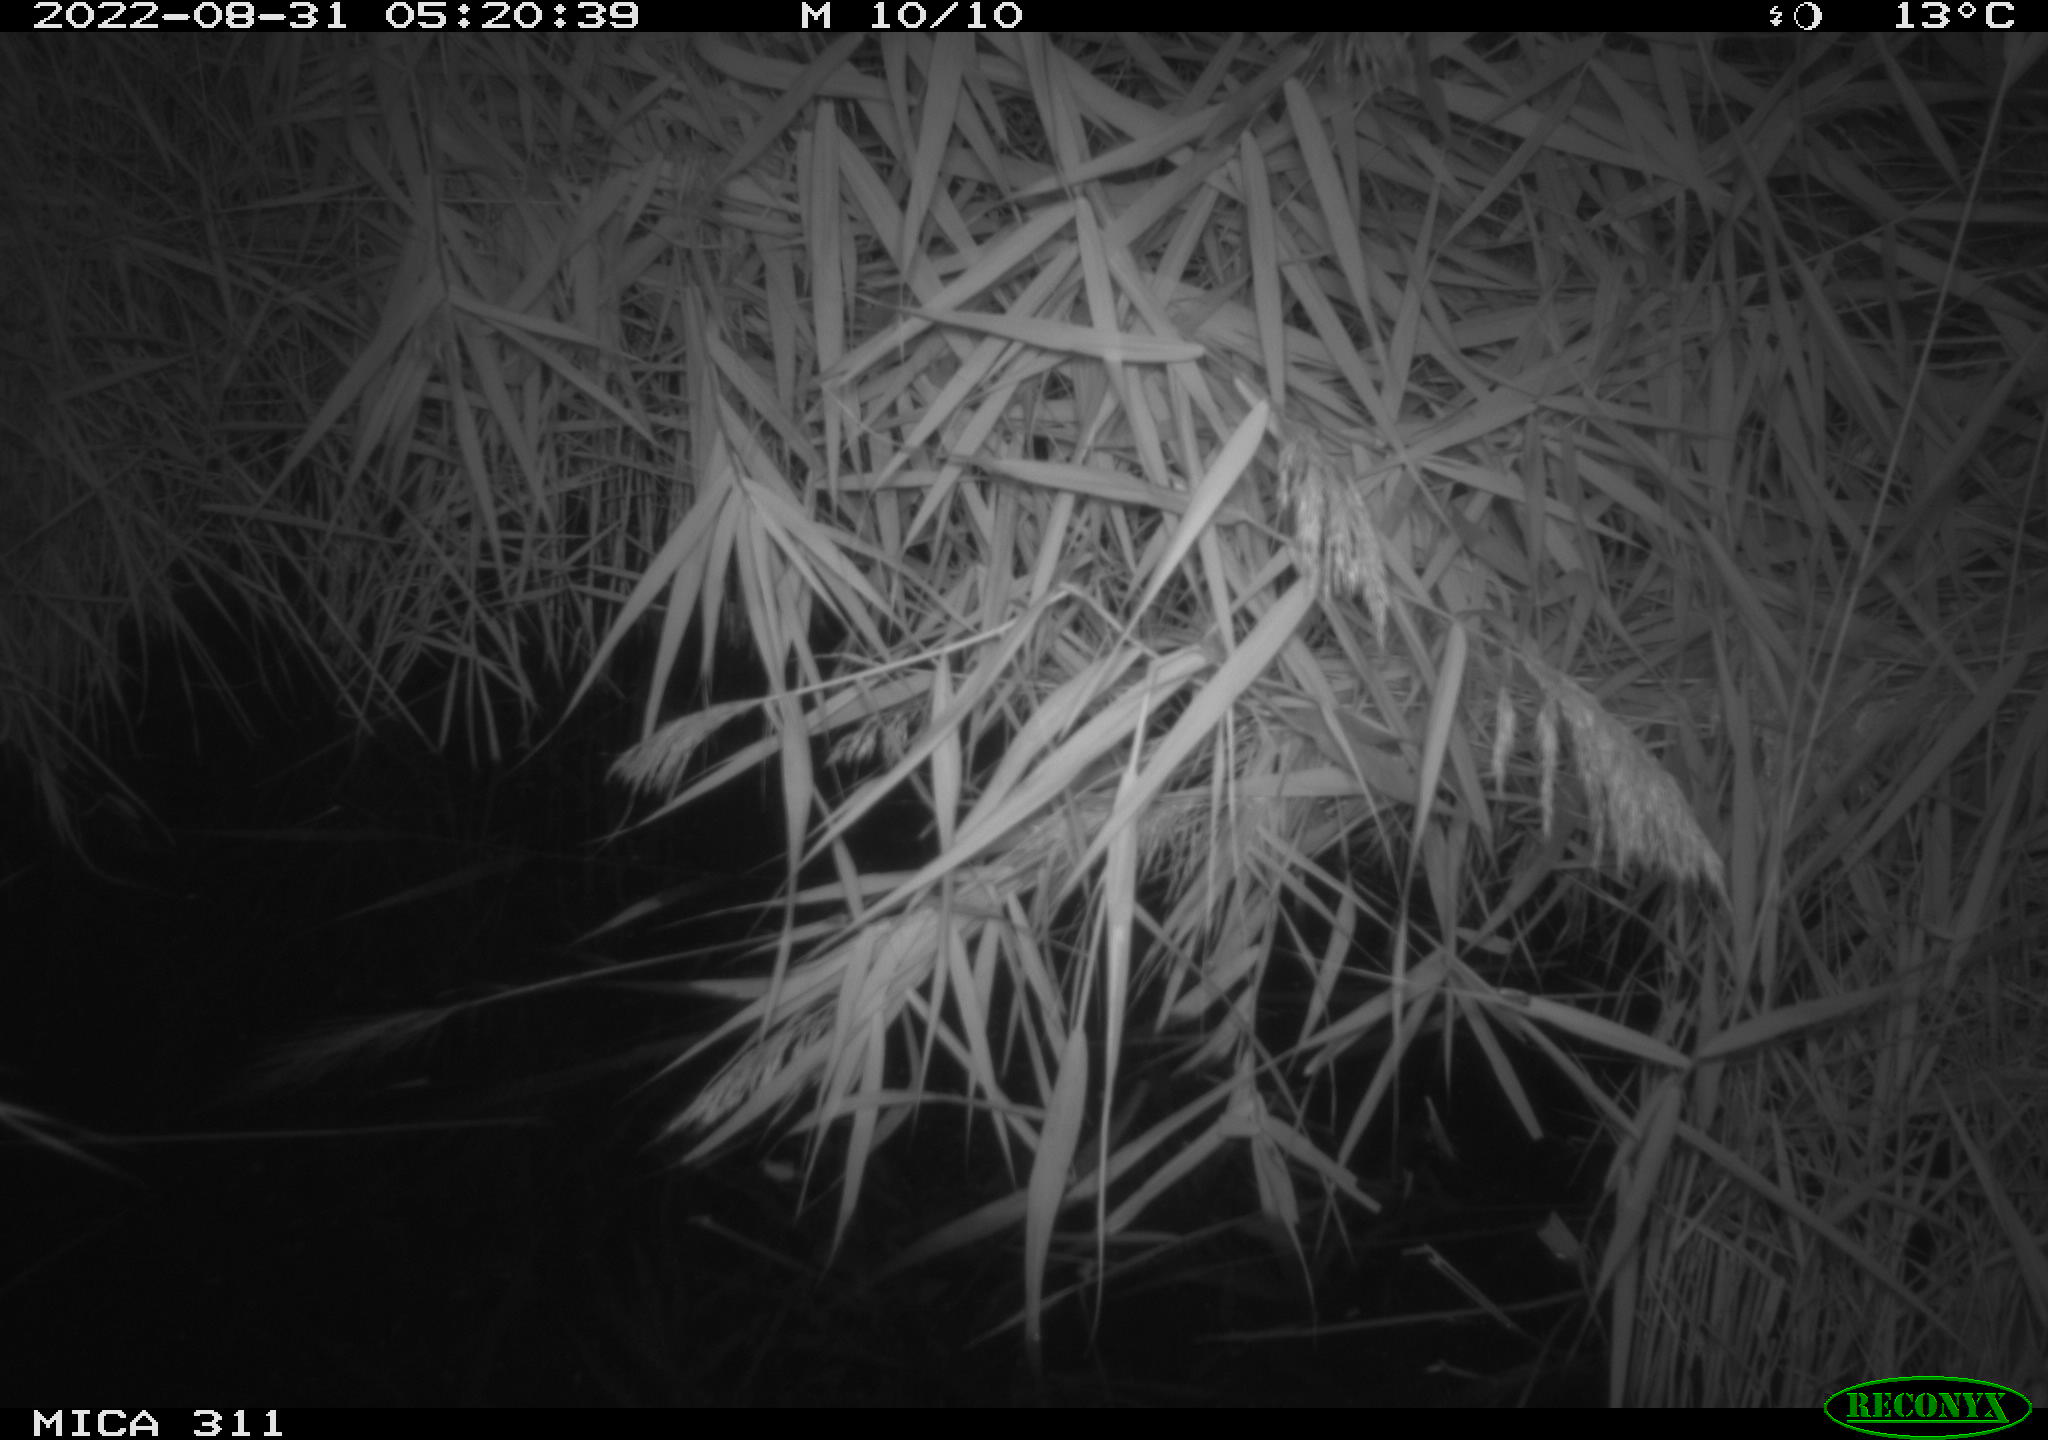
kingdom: Animalia
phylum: Chordata
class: Mammalia
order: Rodentia
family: Muridae
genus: Rattus
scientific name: Rattus norvegicus
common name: Brown rat
